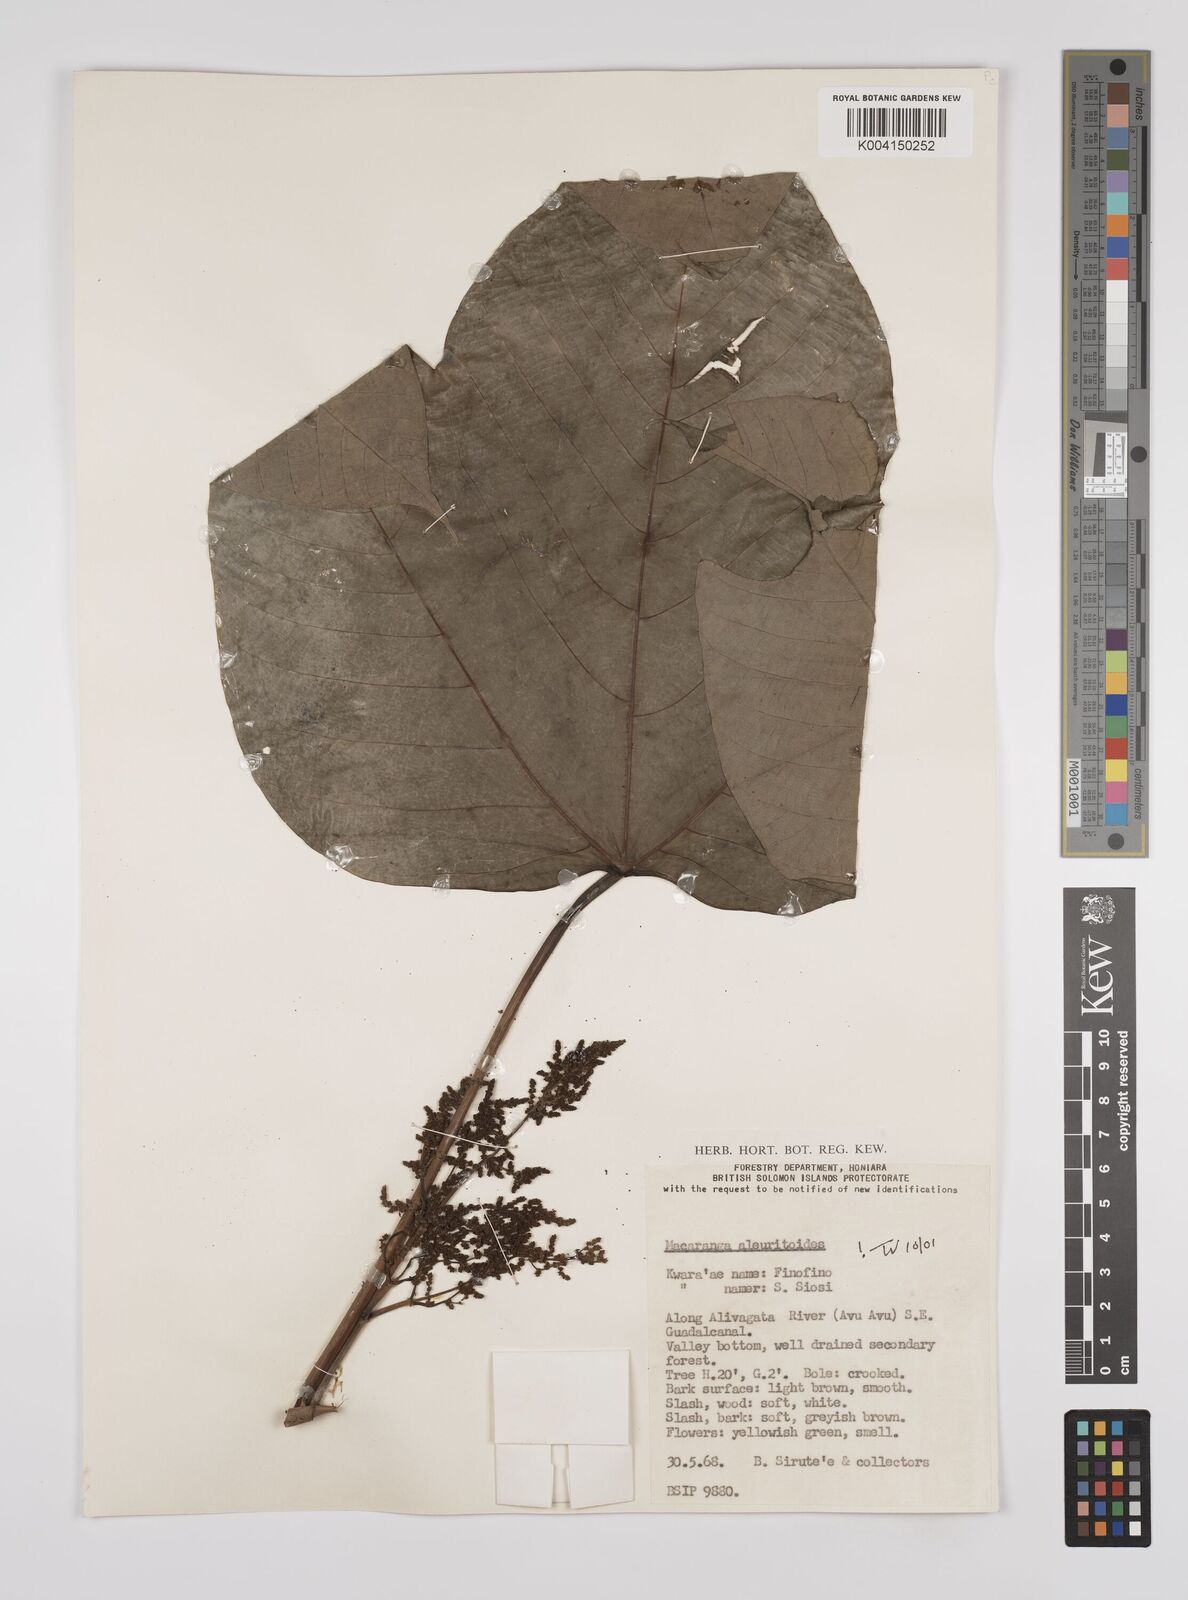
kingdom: Plantae
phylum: Tracheophyta
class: Magnoliopsida
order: Malpighiales
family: Euphorbiaceae
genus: Macaranga
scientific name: Macaranga aleuritoides
